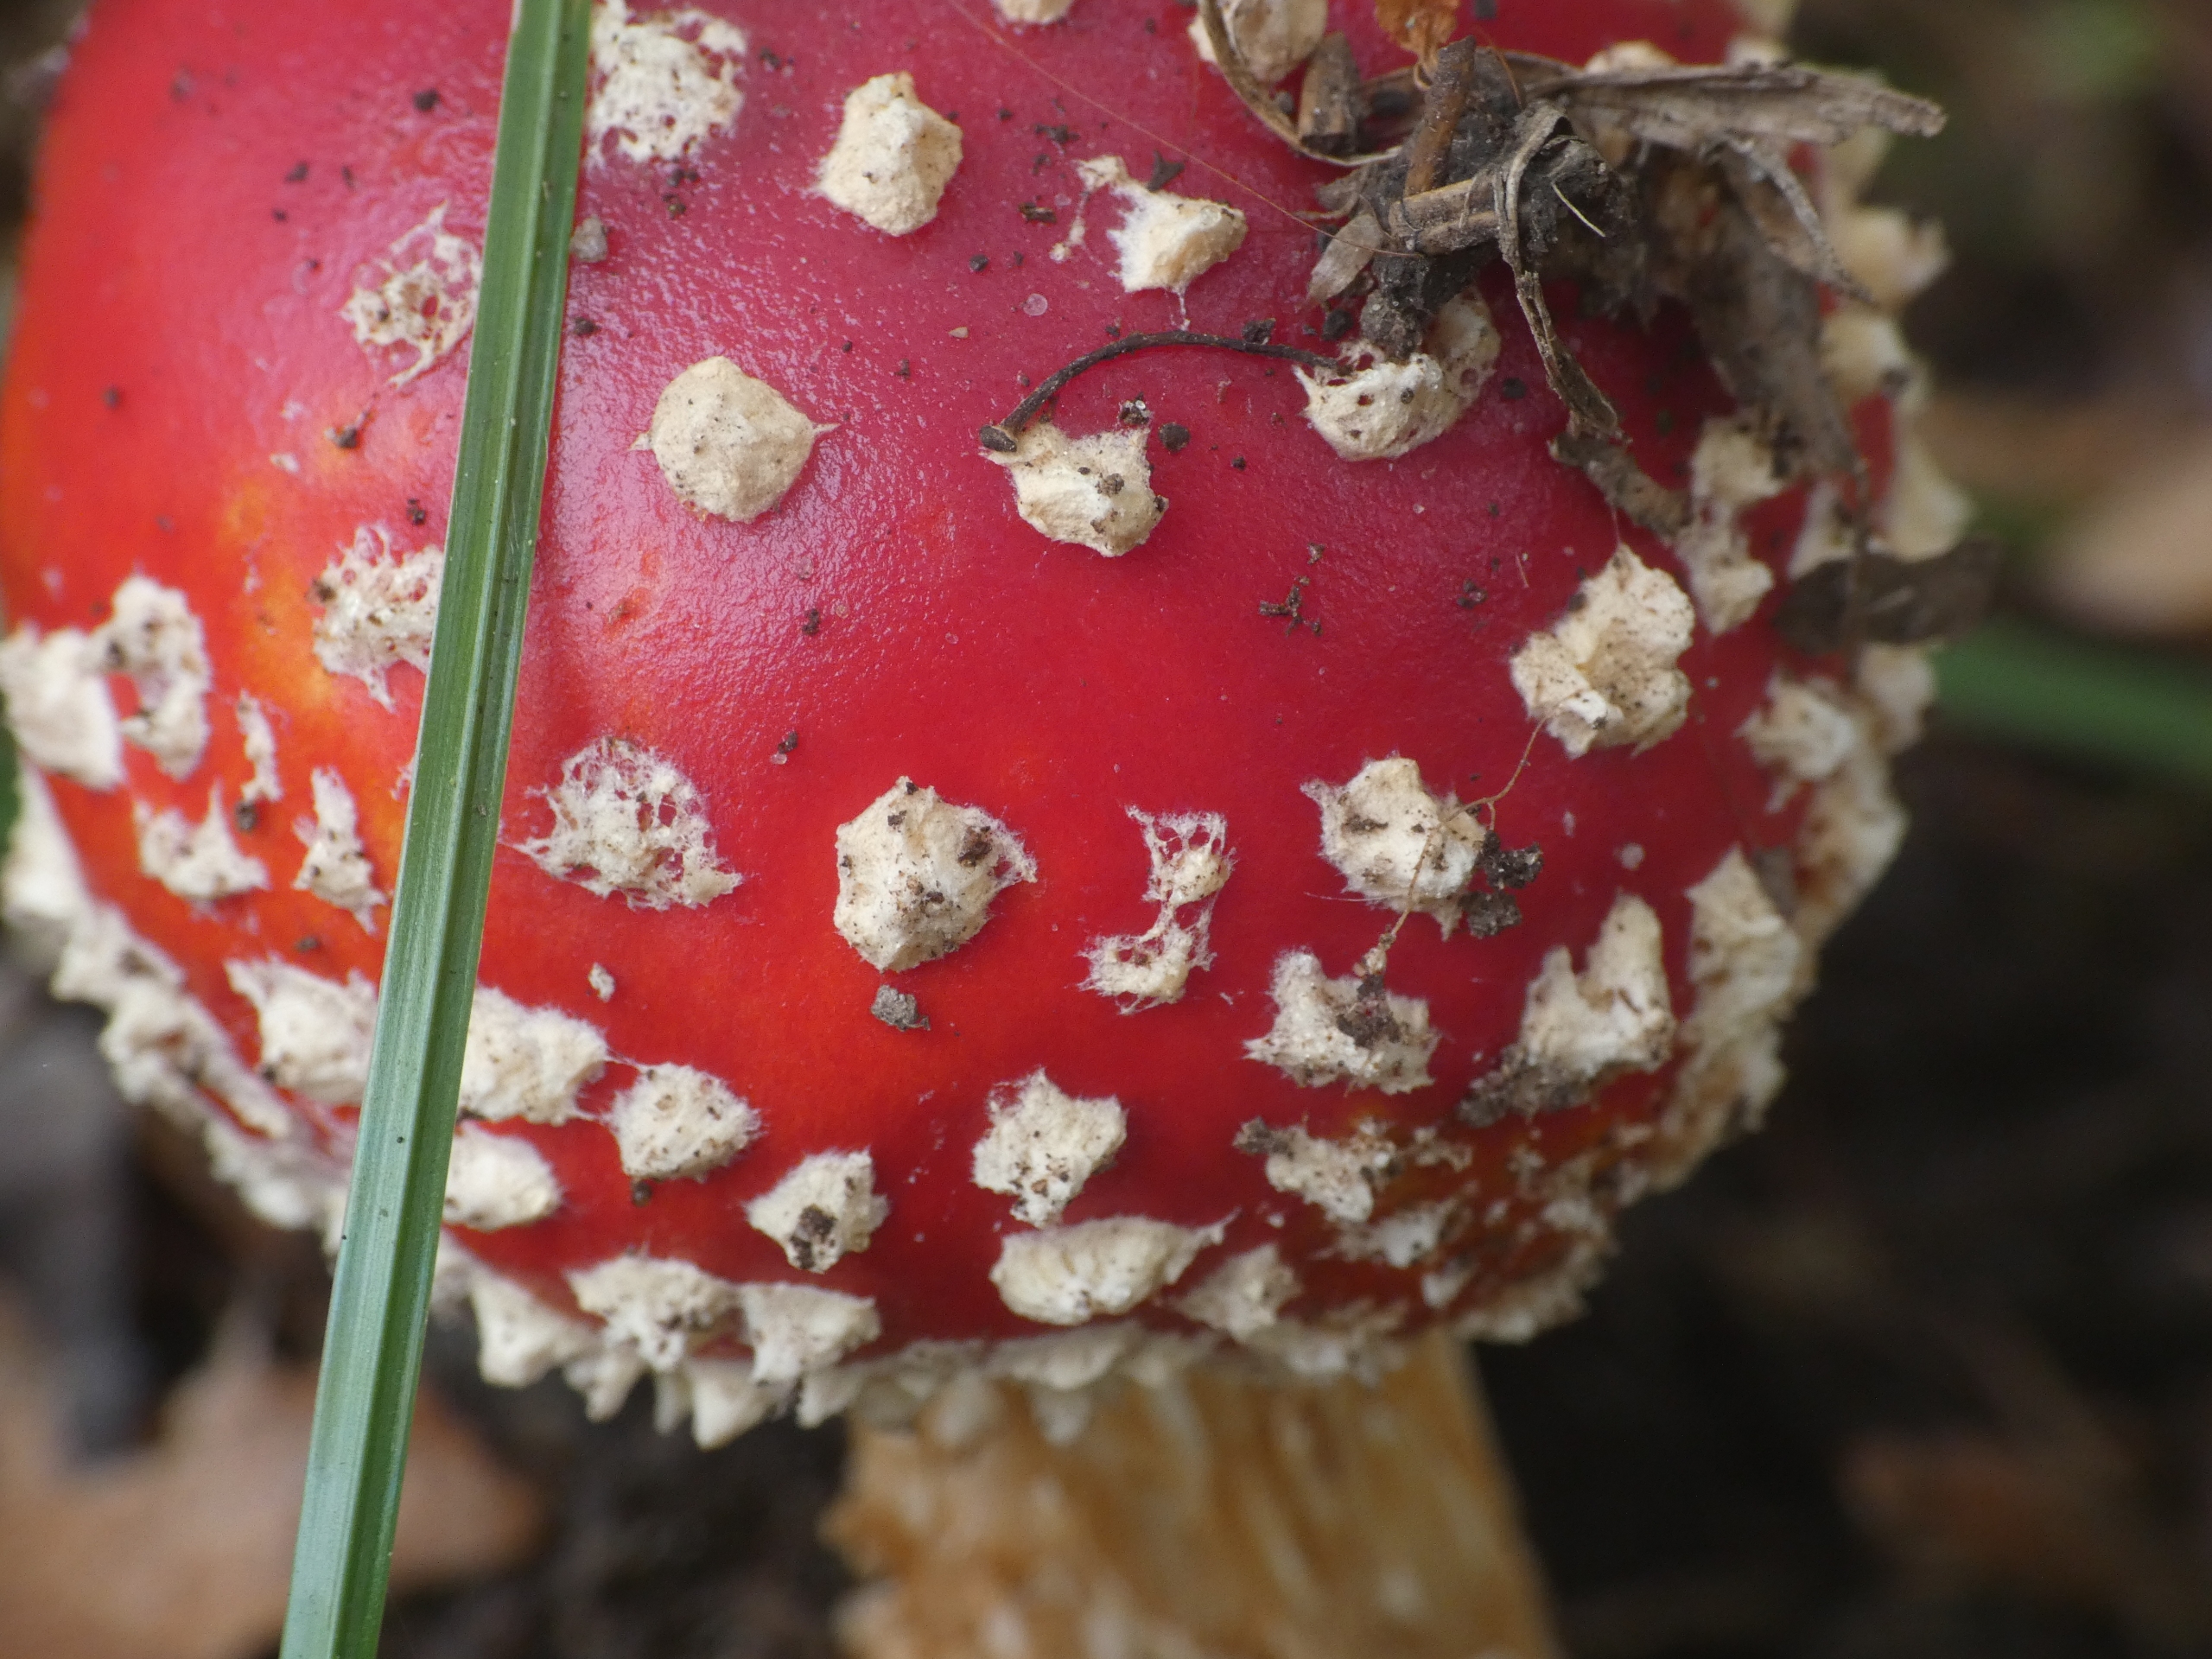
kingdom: Fungi
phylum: Basidiomycota
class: Agaricomycetes
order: Agaricales
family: Amanitaceae
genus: Amanita
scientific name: Amanita muscaria
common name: Rød fluesvamp
